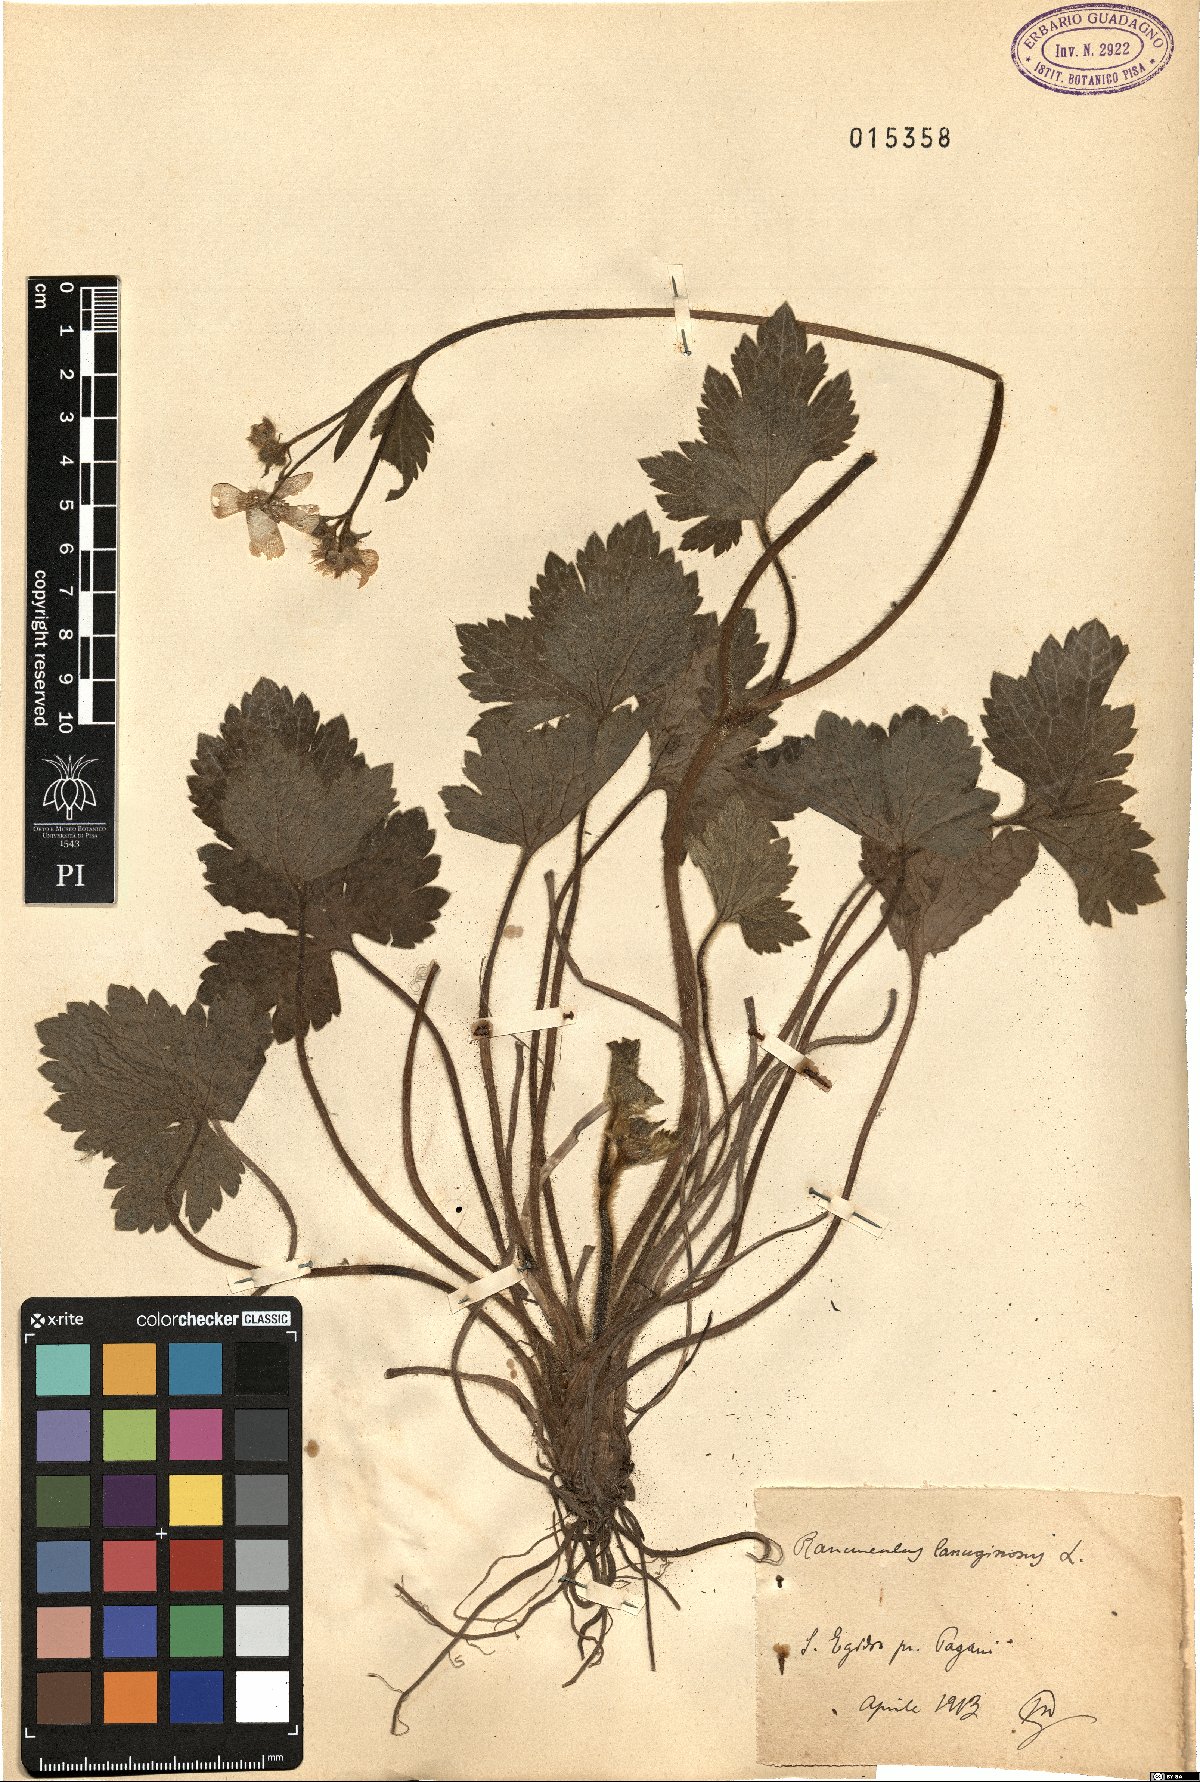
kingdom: Plantae
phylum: Tracheophyta
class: Magnoliopsida
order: Ranunculales
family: Ranunculaceae
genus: Ranunculus
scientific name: Ranunculus lanuginosus
